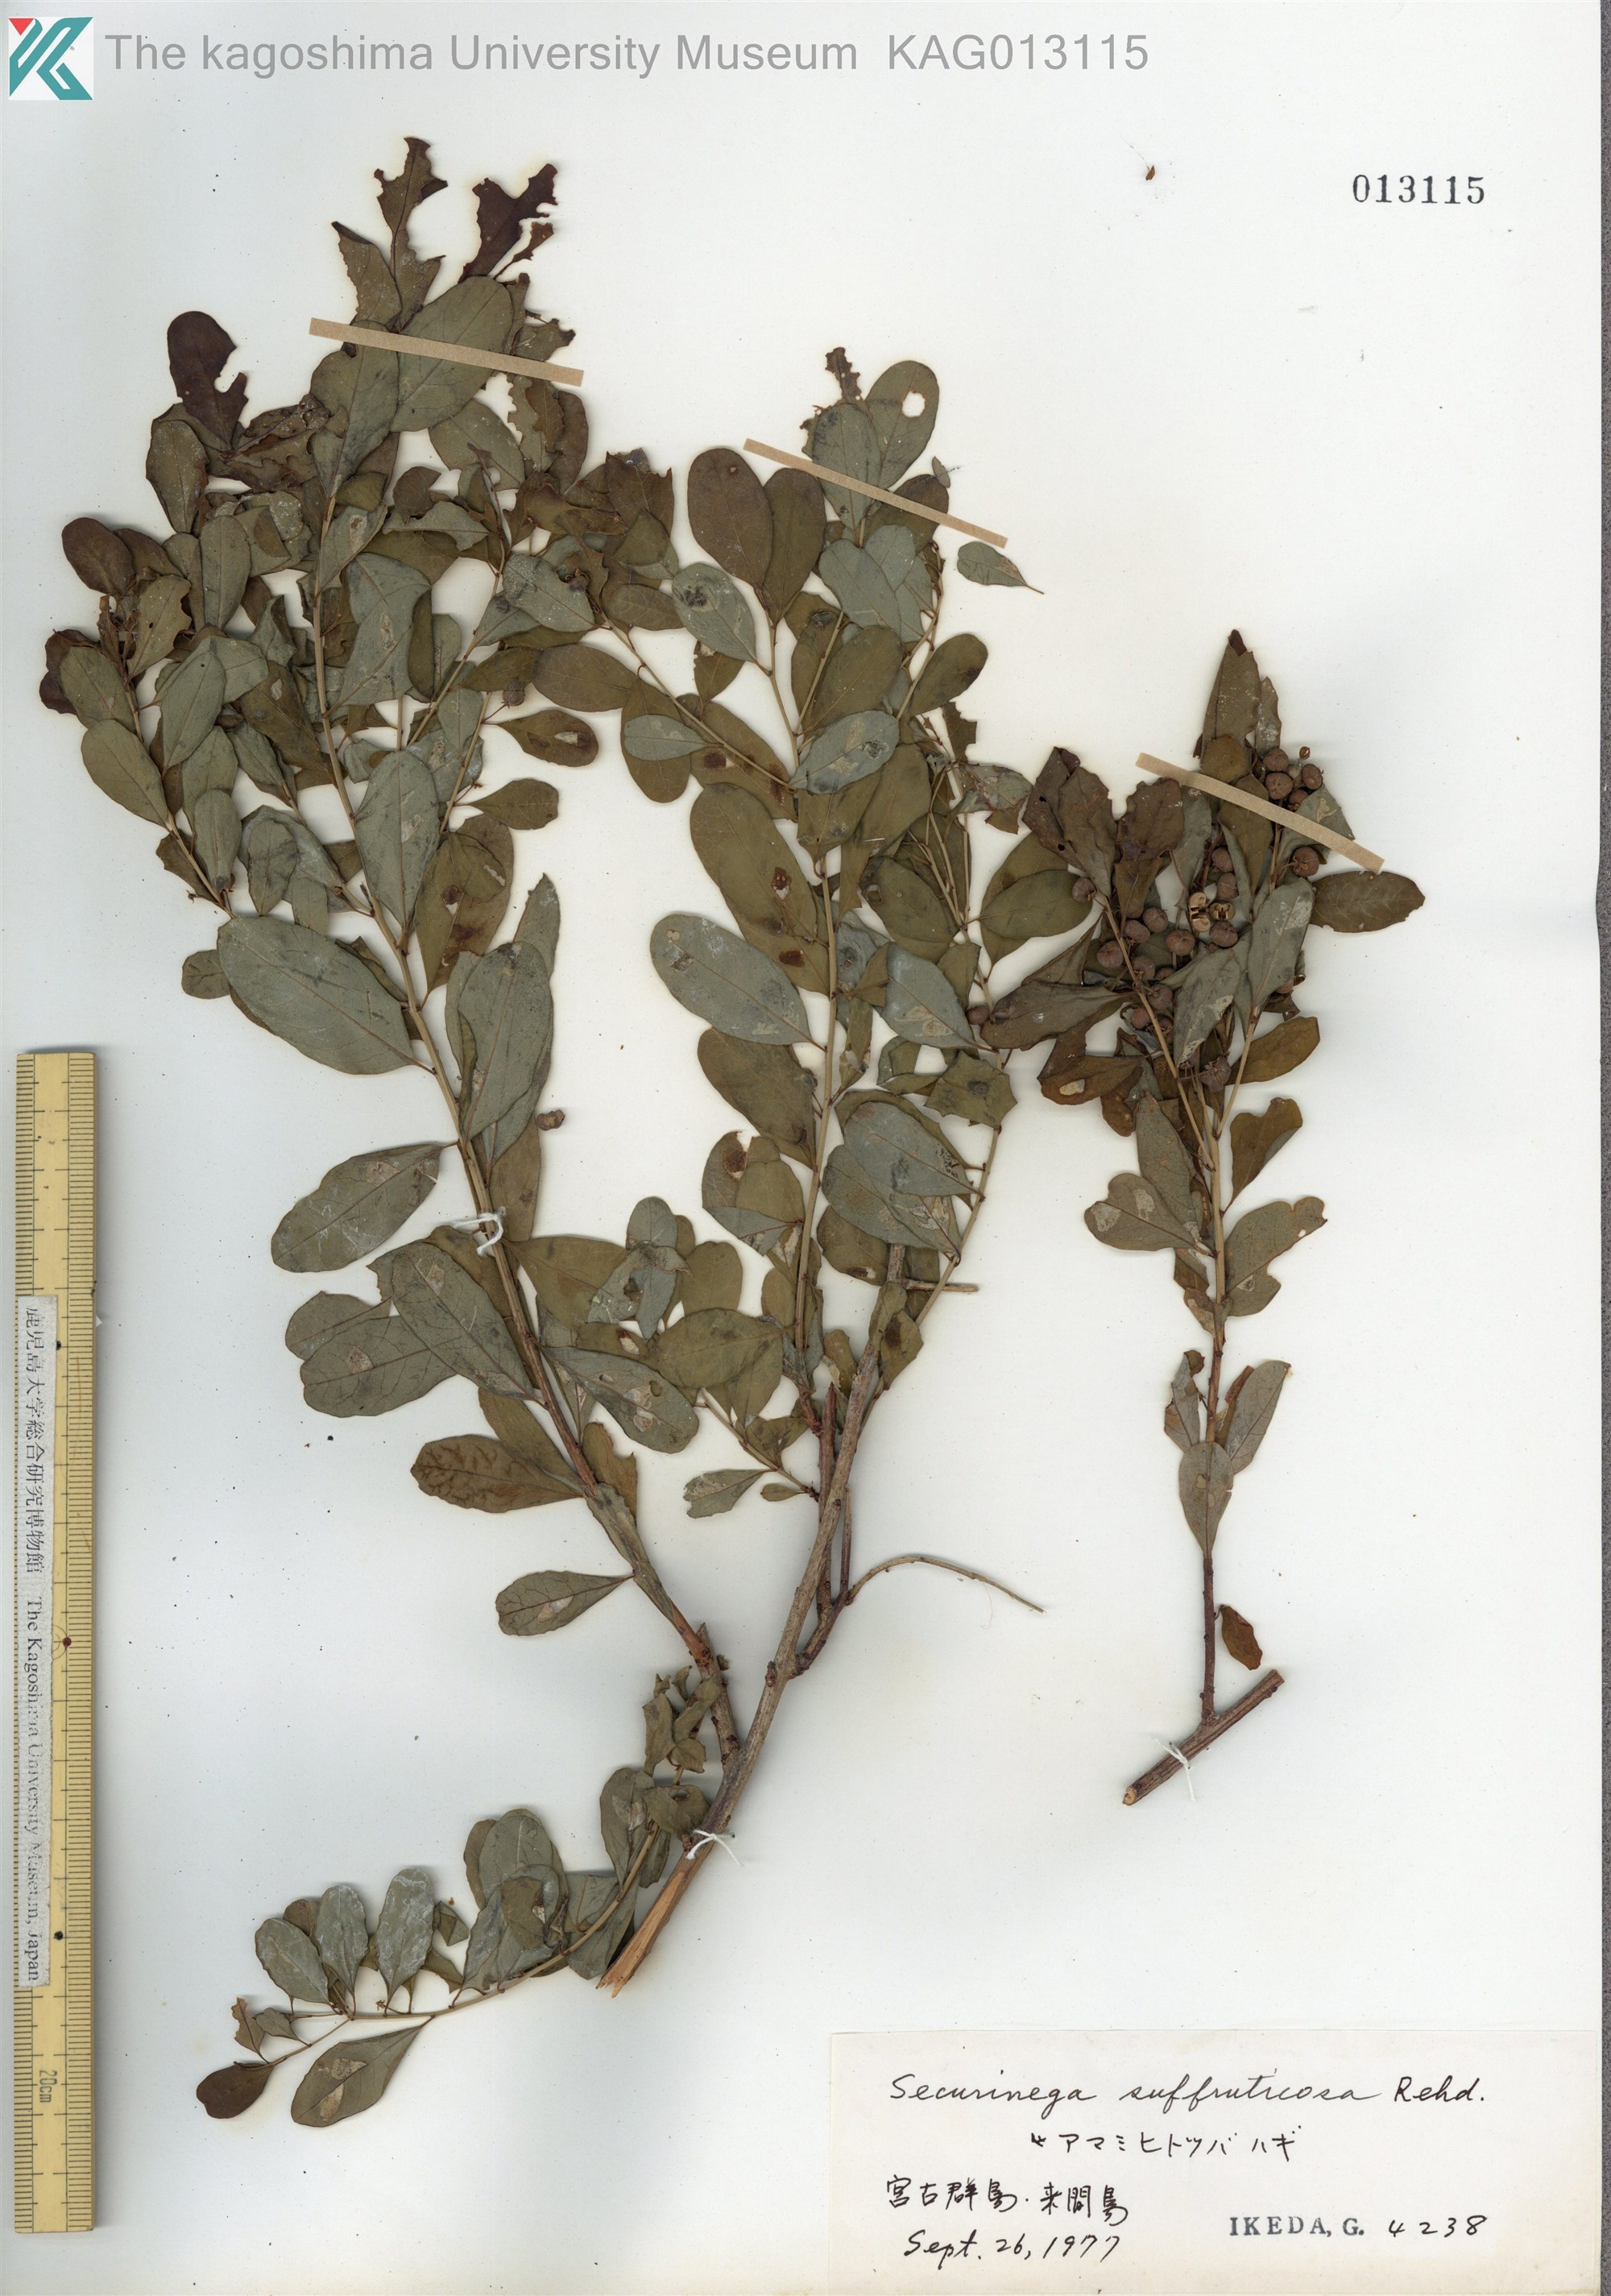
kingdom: Plantae
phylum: Tracheophyta
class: Magnoliopsida
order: Malpighiales
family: Phyllanthaceae
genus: Flueggea
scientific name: Flueggea suffruticosa
